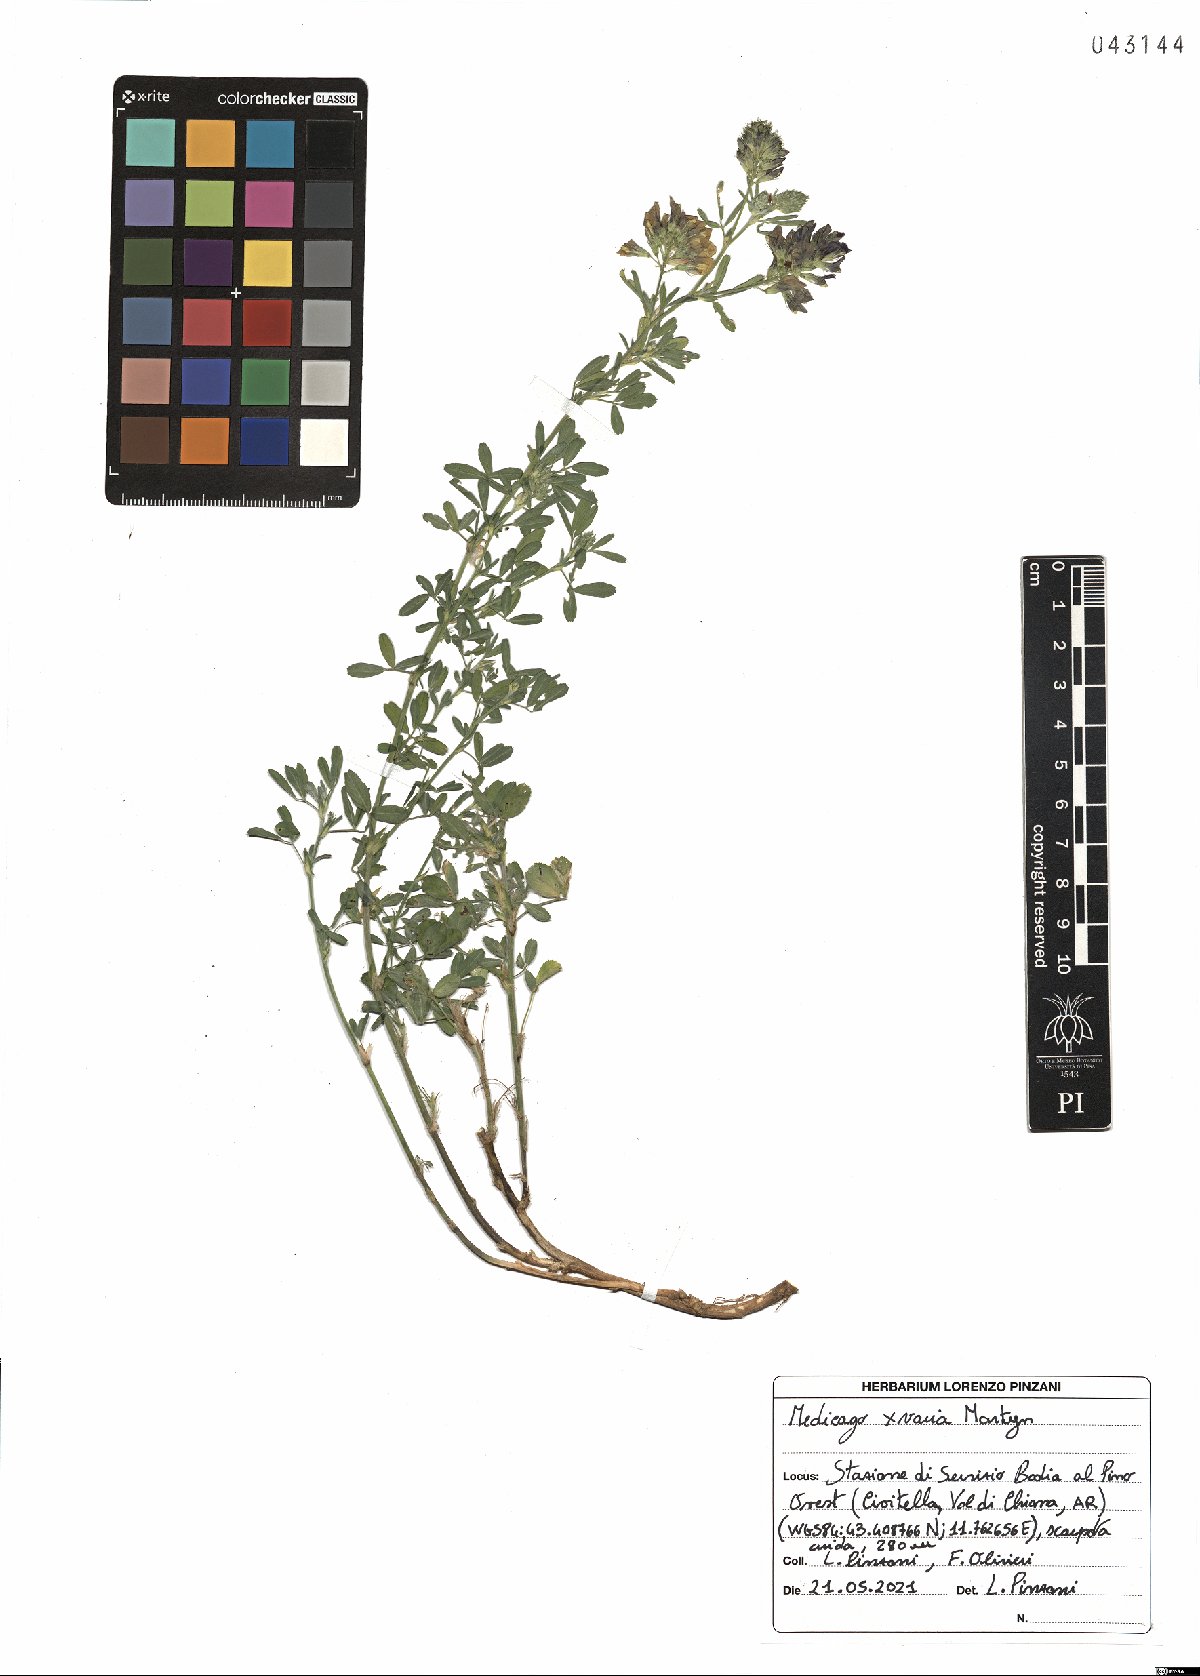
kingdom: Plantae
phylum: Tracheophyta
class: Magnoliopsida
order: Fabales
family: Fabaceae
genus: Medicago
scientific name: Medicago varia
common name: Sand lucerne
